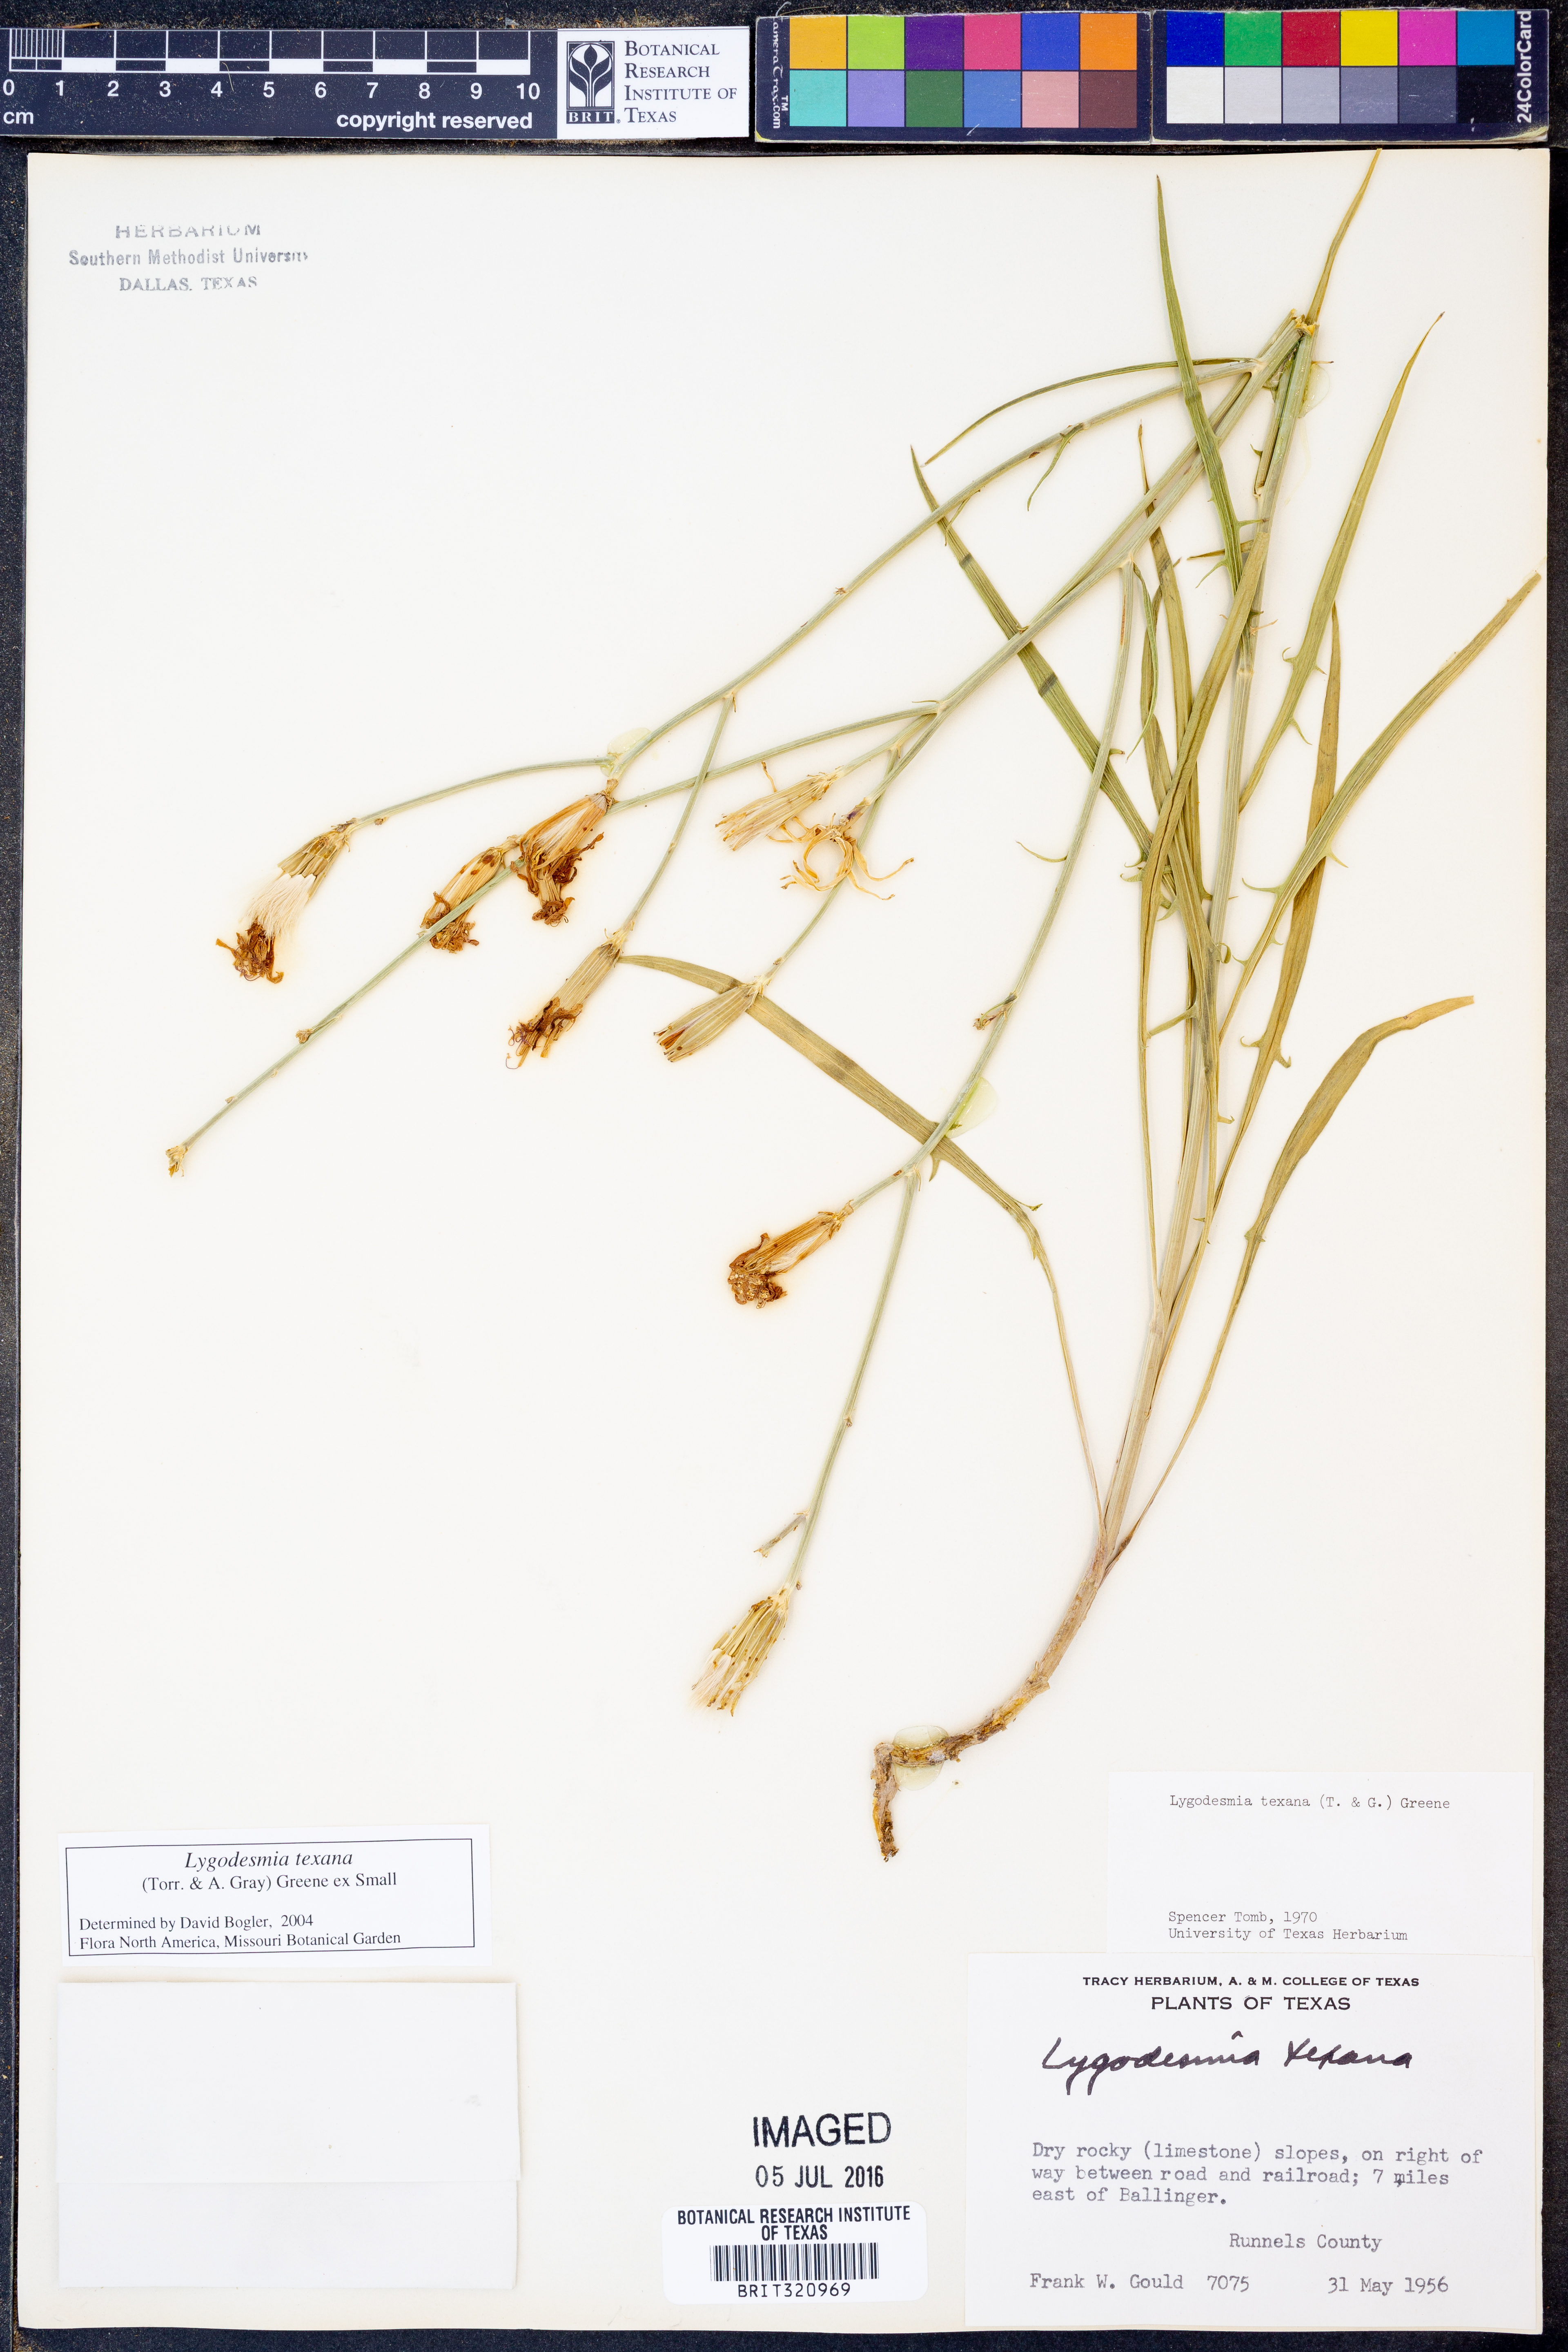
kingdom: Plantae
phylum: Tracheophyta
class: Magnoliopsida
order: Asterales
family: Asteraceae
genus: Lygodesmia
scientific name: Lygodesmia texana
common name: Texas skeleton-plant
